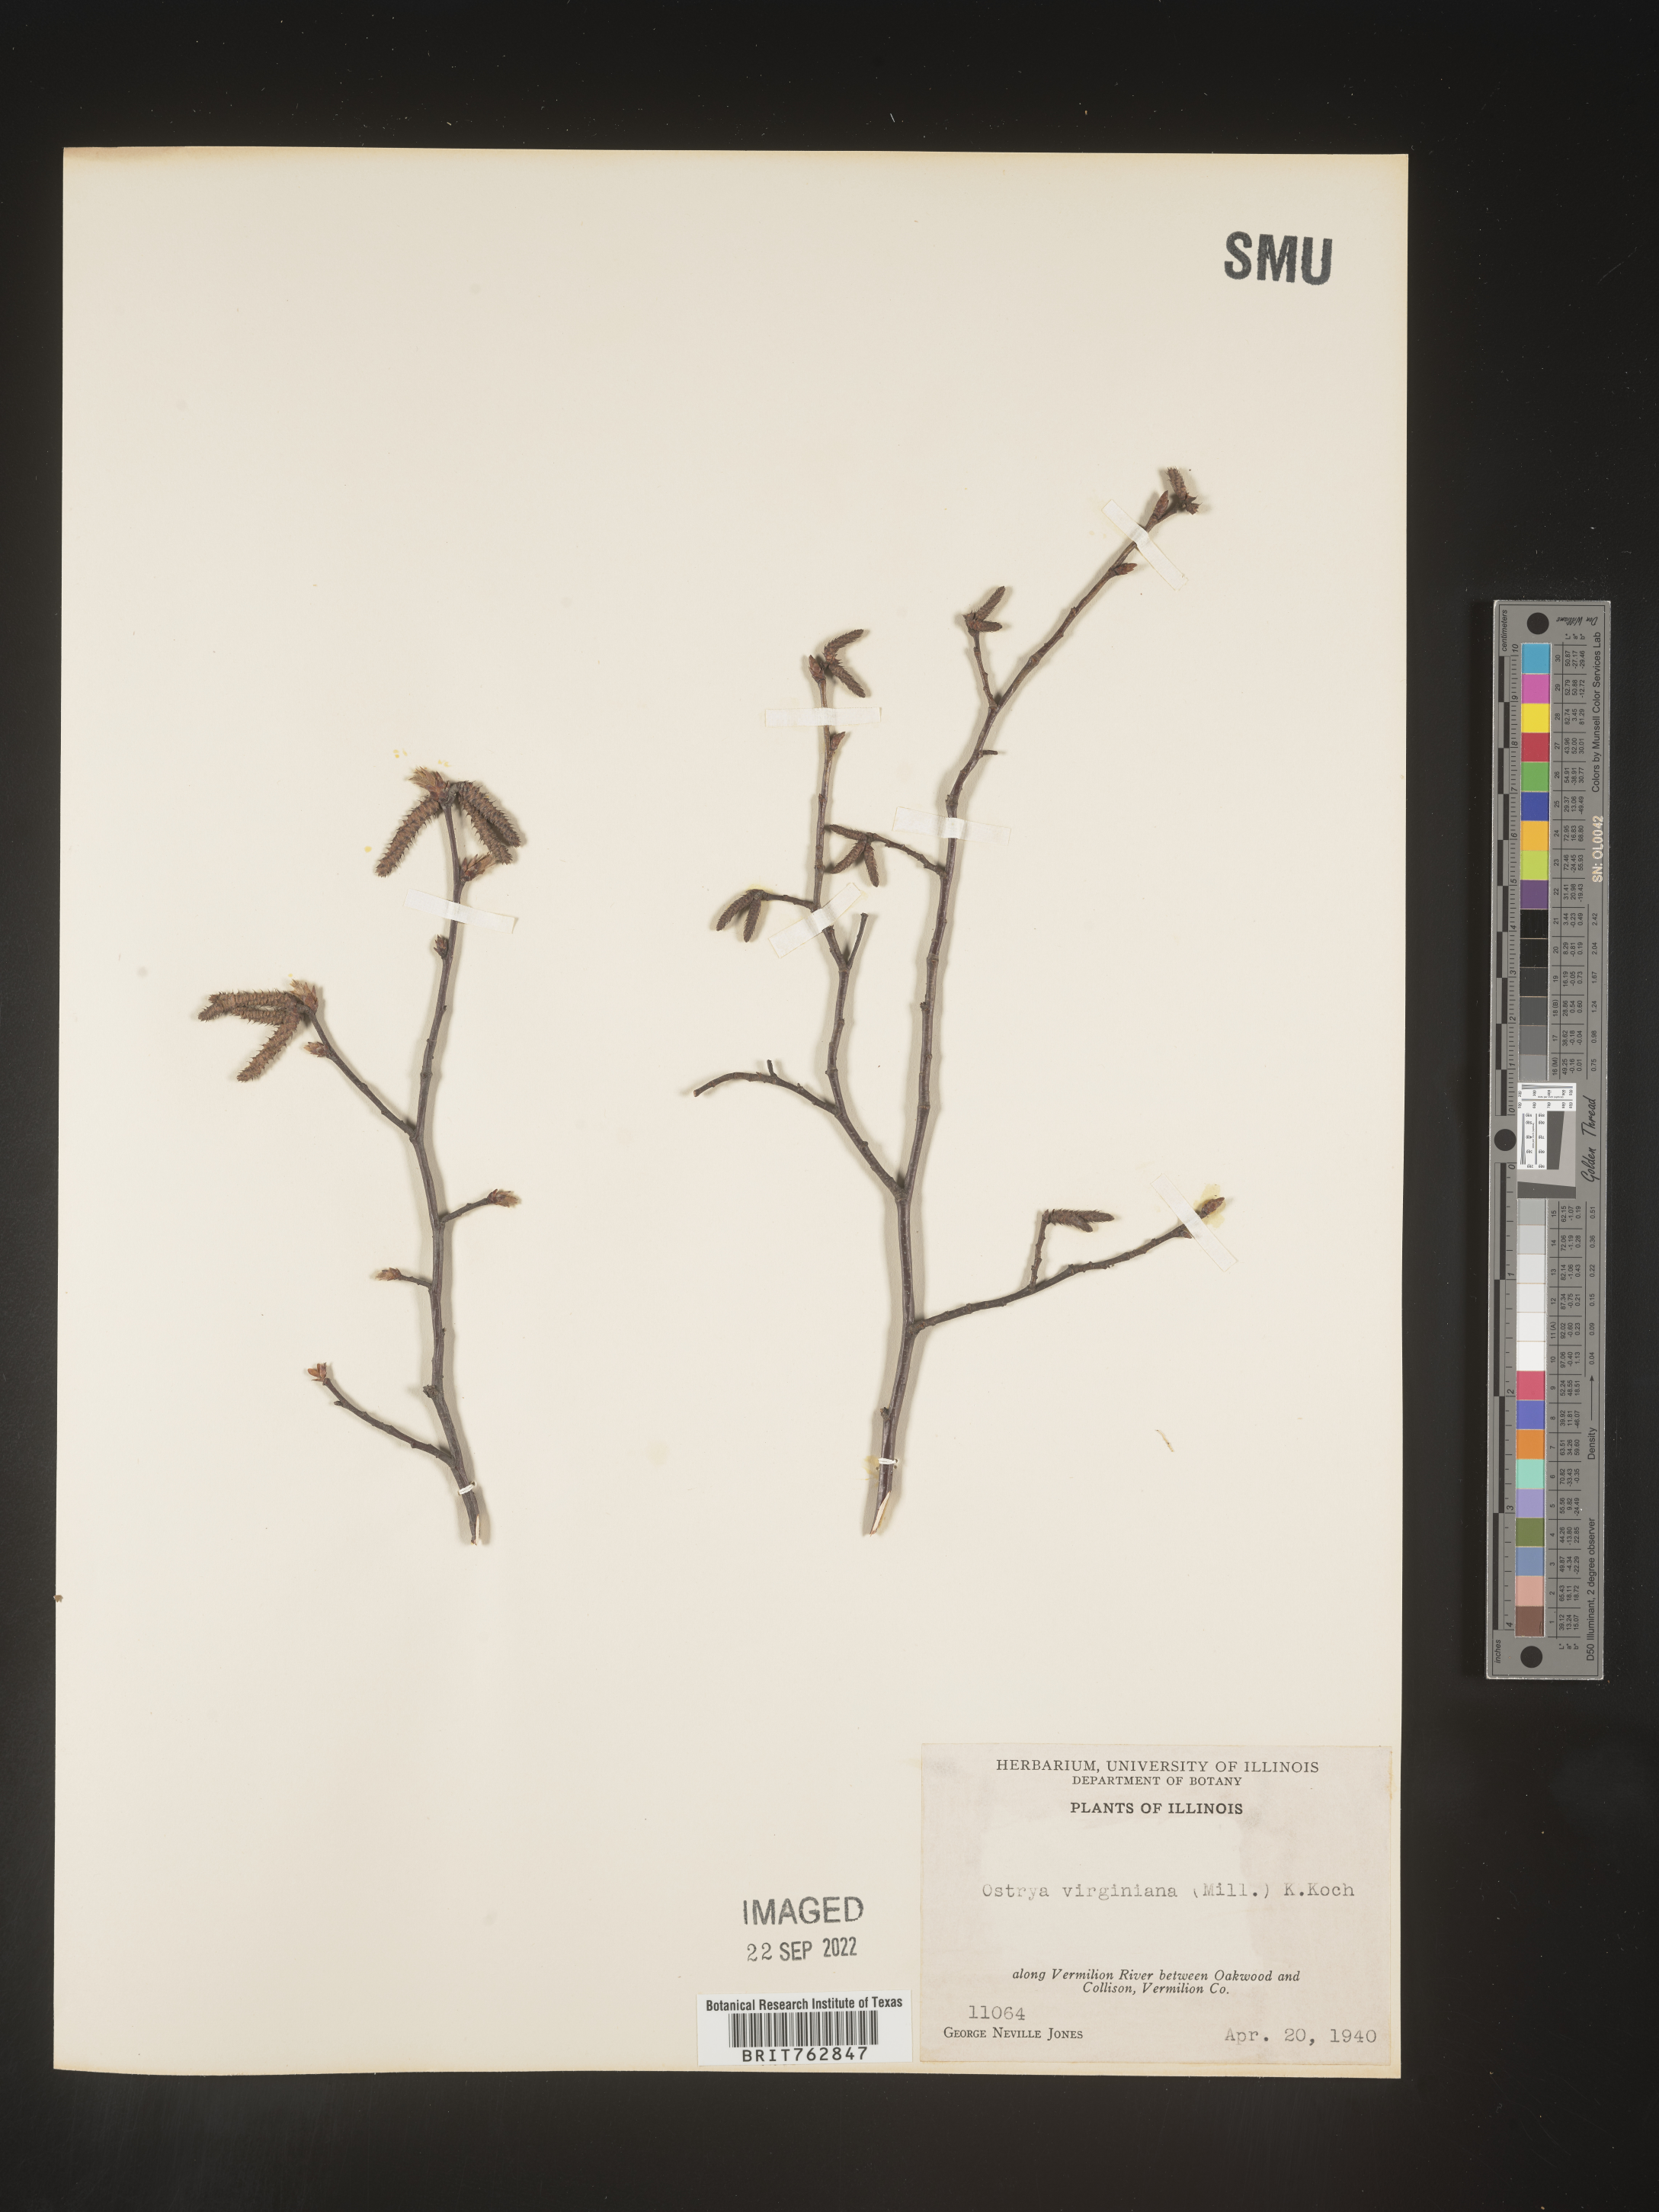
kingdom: Plantae
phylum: Tracheophyta
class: Magnoliopsida
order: Fagales
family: Betulaceae
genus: Ostrya
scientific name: Ostrya virginiana
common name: Ironwood
